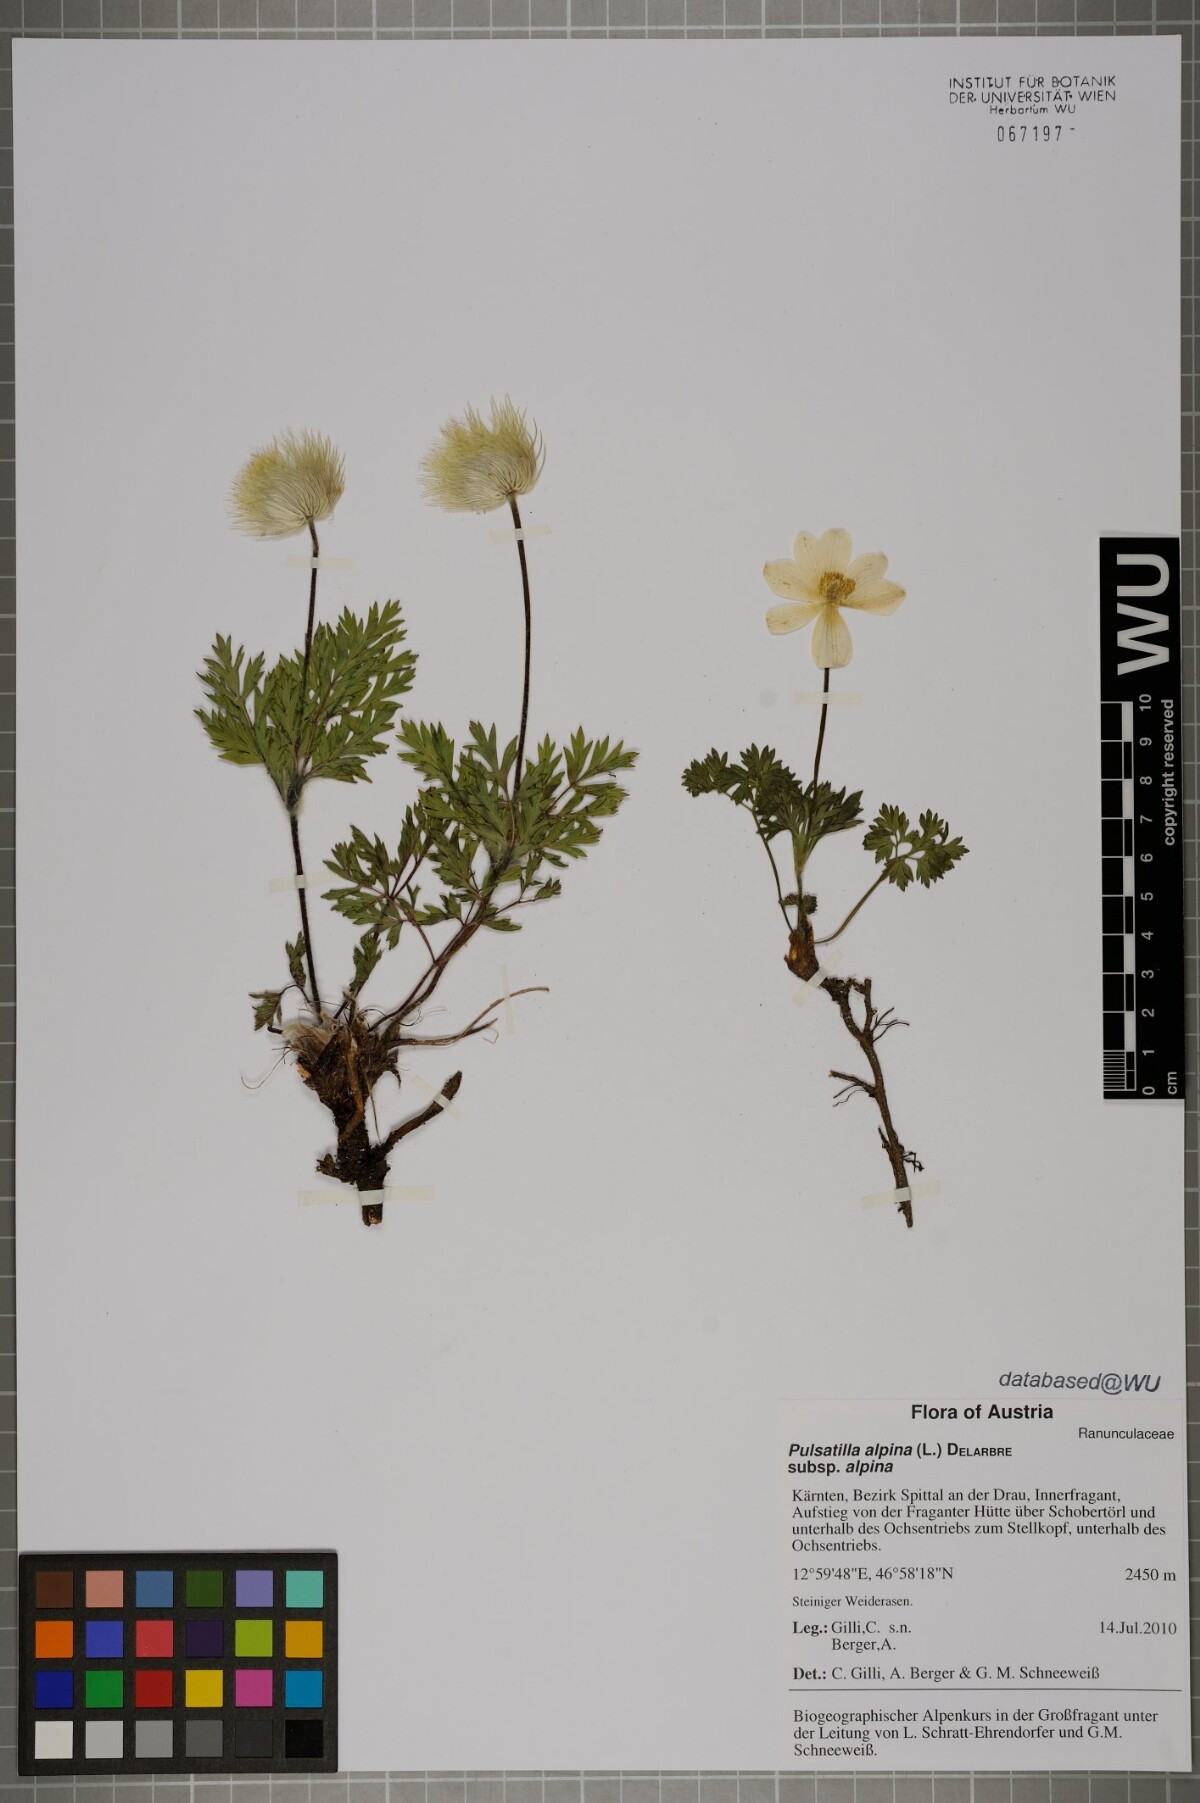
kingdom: Plantae
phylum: Tracheophyta
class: Magnoliopsida
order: Ranunculales
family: Ranunculaceae
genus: Pulsatilla
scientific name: Pulsatilla alpina
